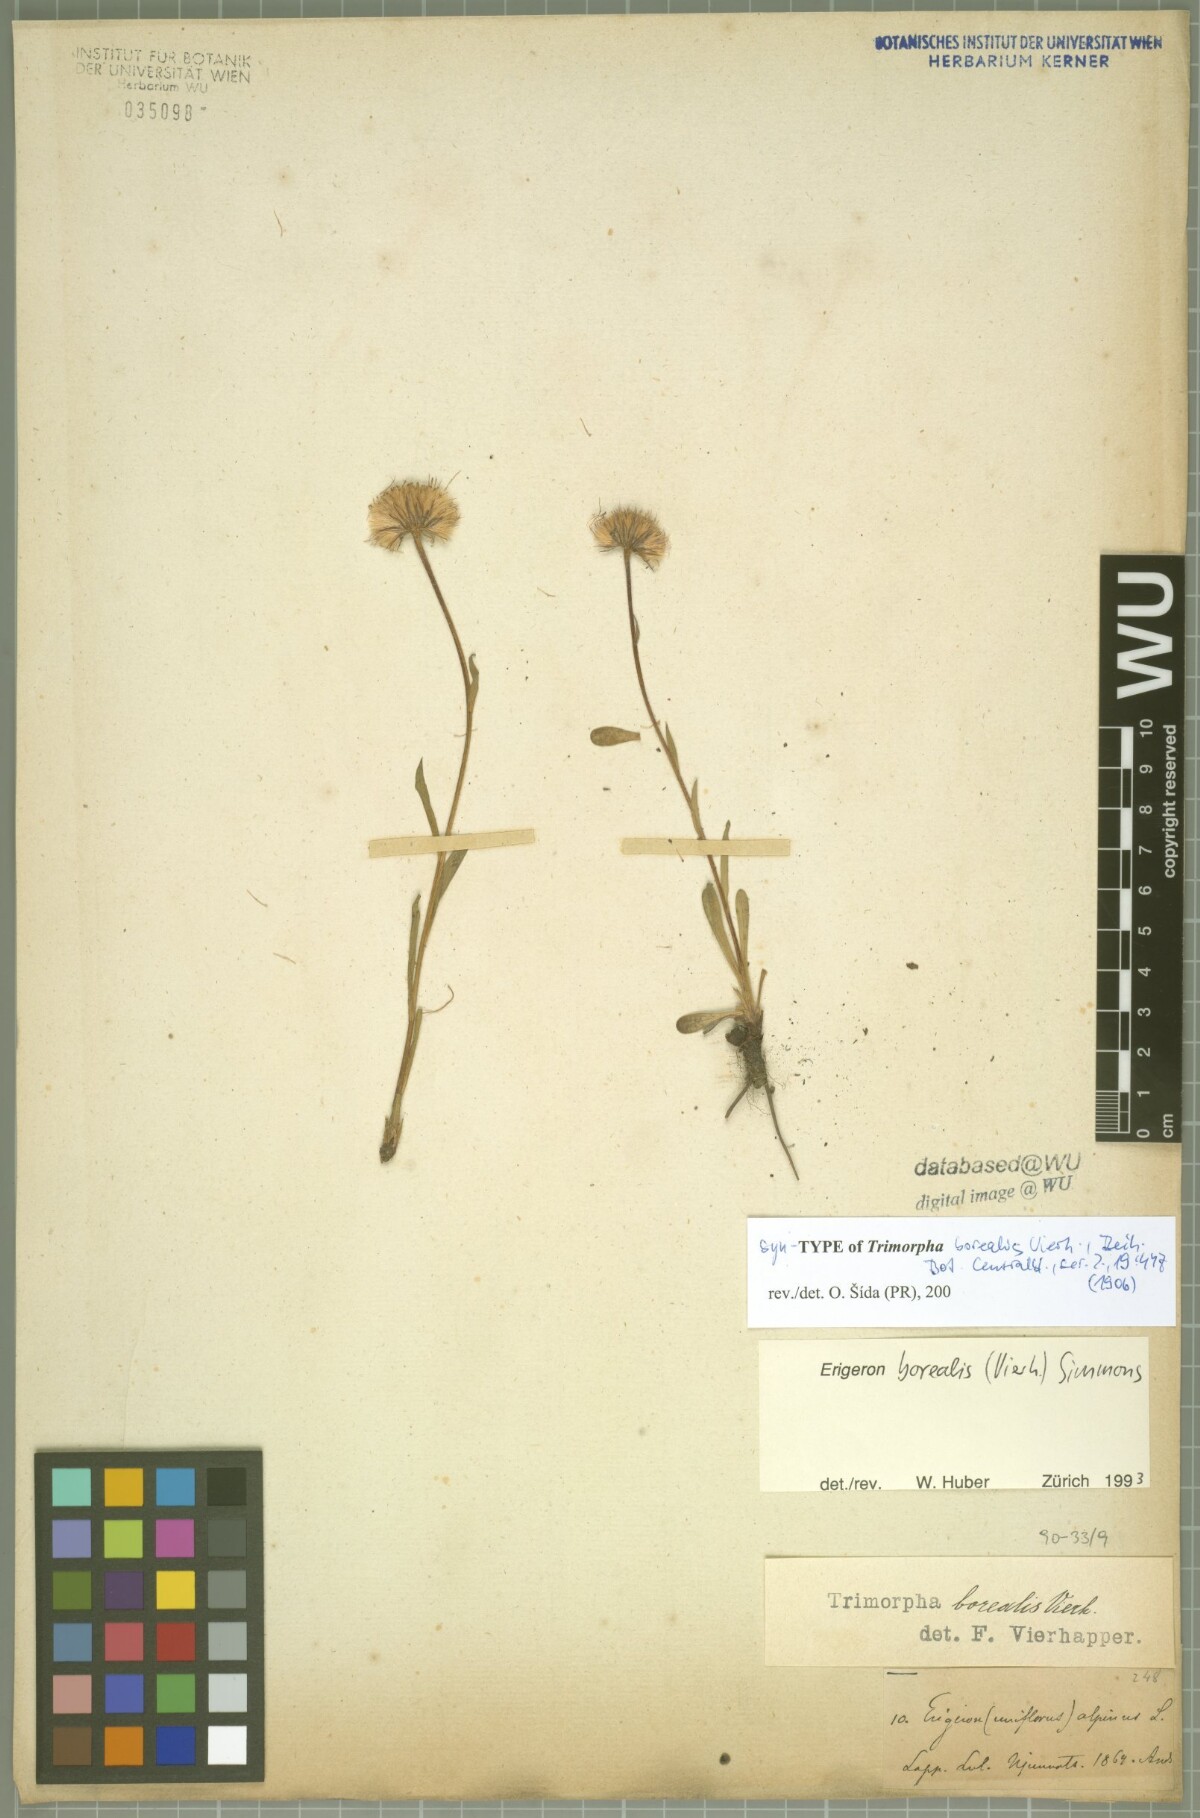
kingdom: Plantae
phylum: Tracheophyta
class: Magnoliopsida
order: Asterales
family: Asteraceae
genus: Erigeron
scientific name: Erigeron borealis
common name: Alpine fleabane
